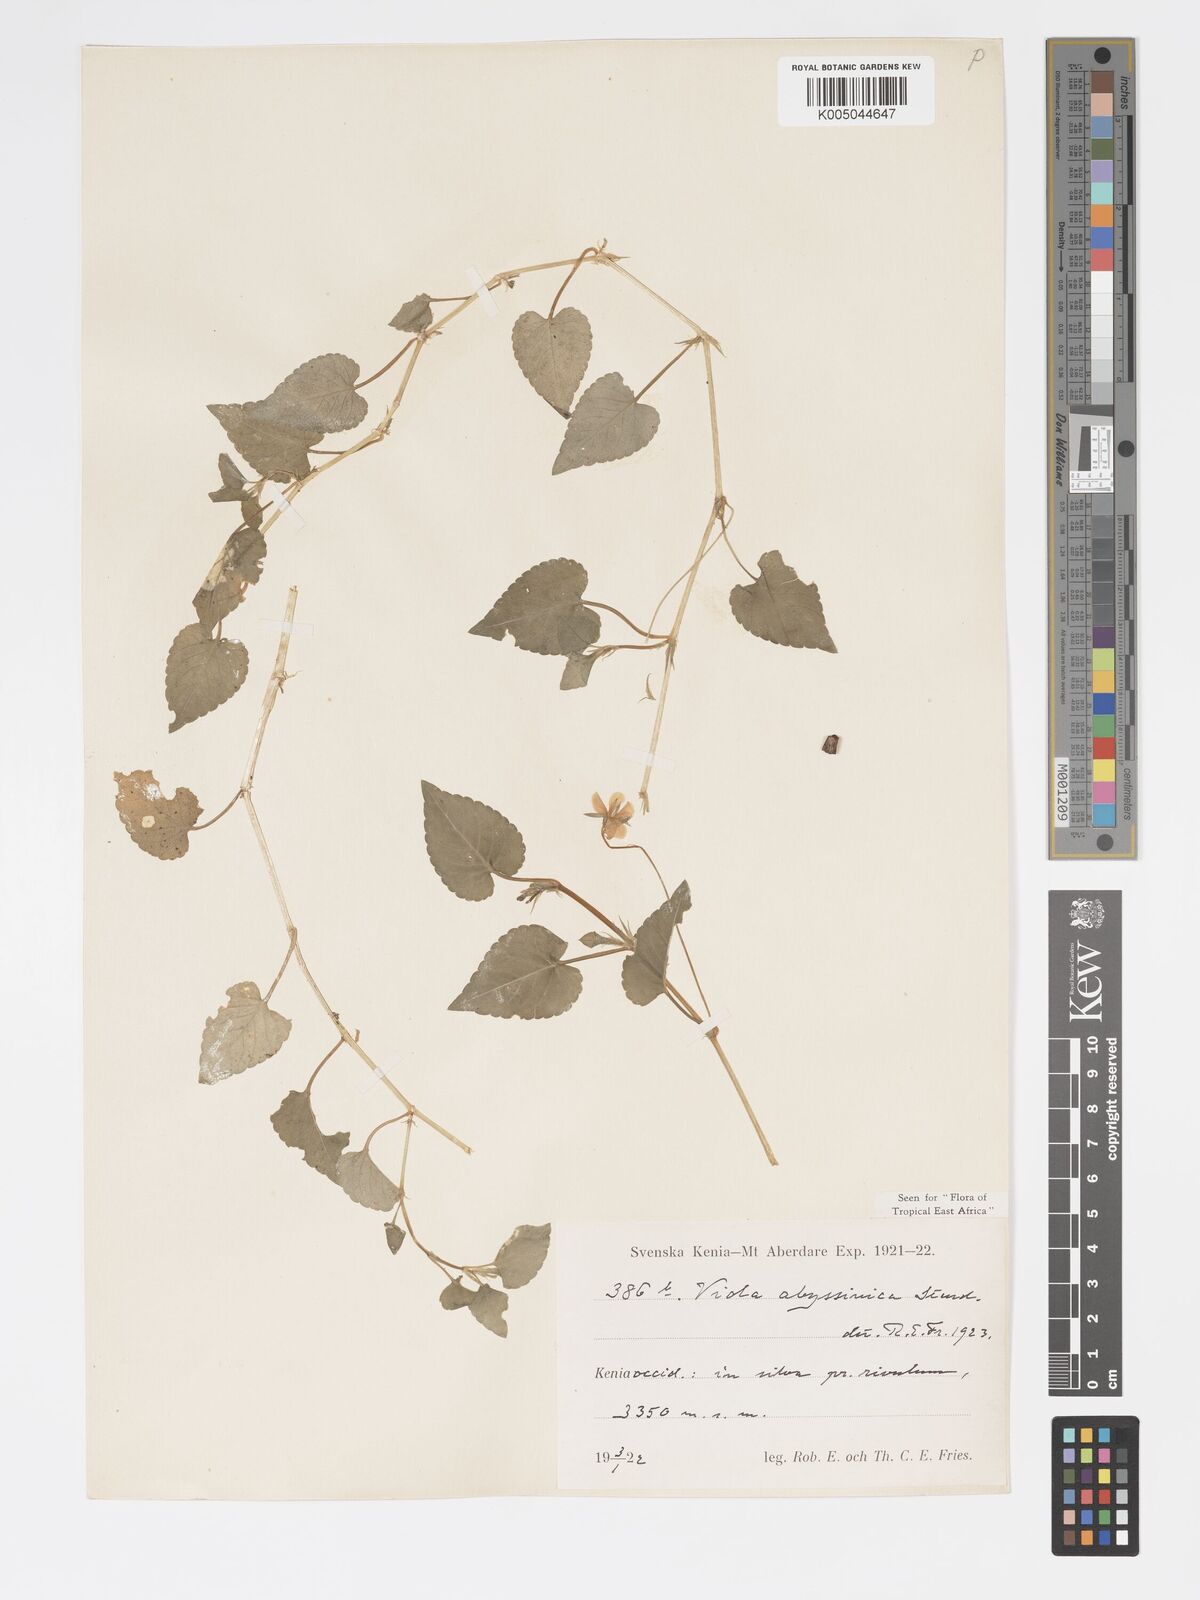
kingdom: Plantae
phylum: Tracheophyta
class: Magnoliopsida
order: Malpighiales
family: Violaceae
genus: Viola
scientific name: Viola abyssinica
